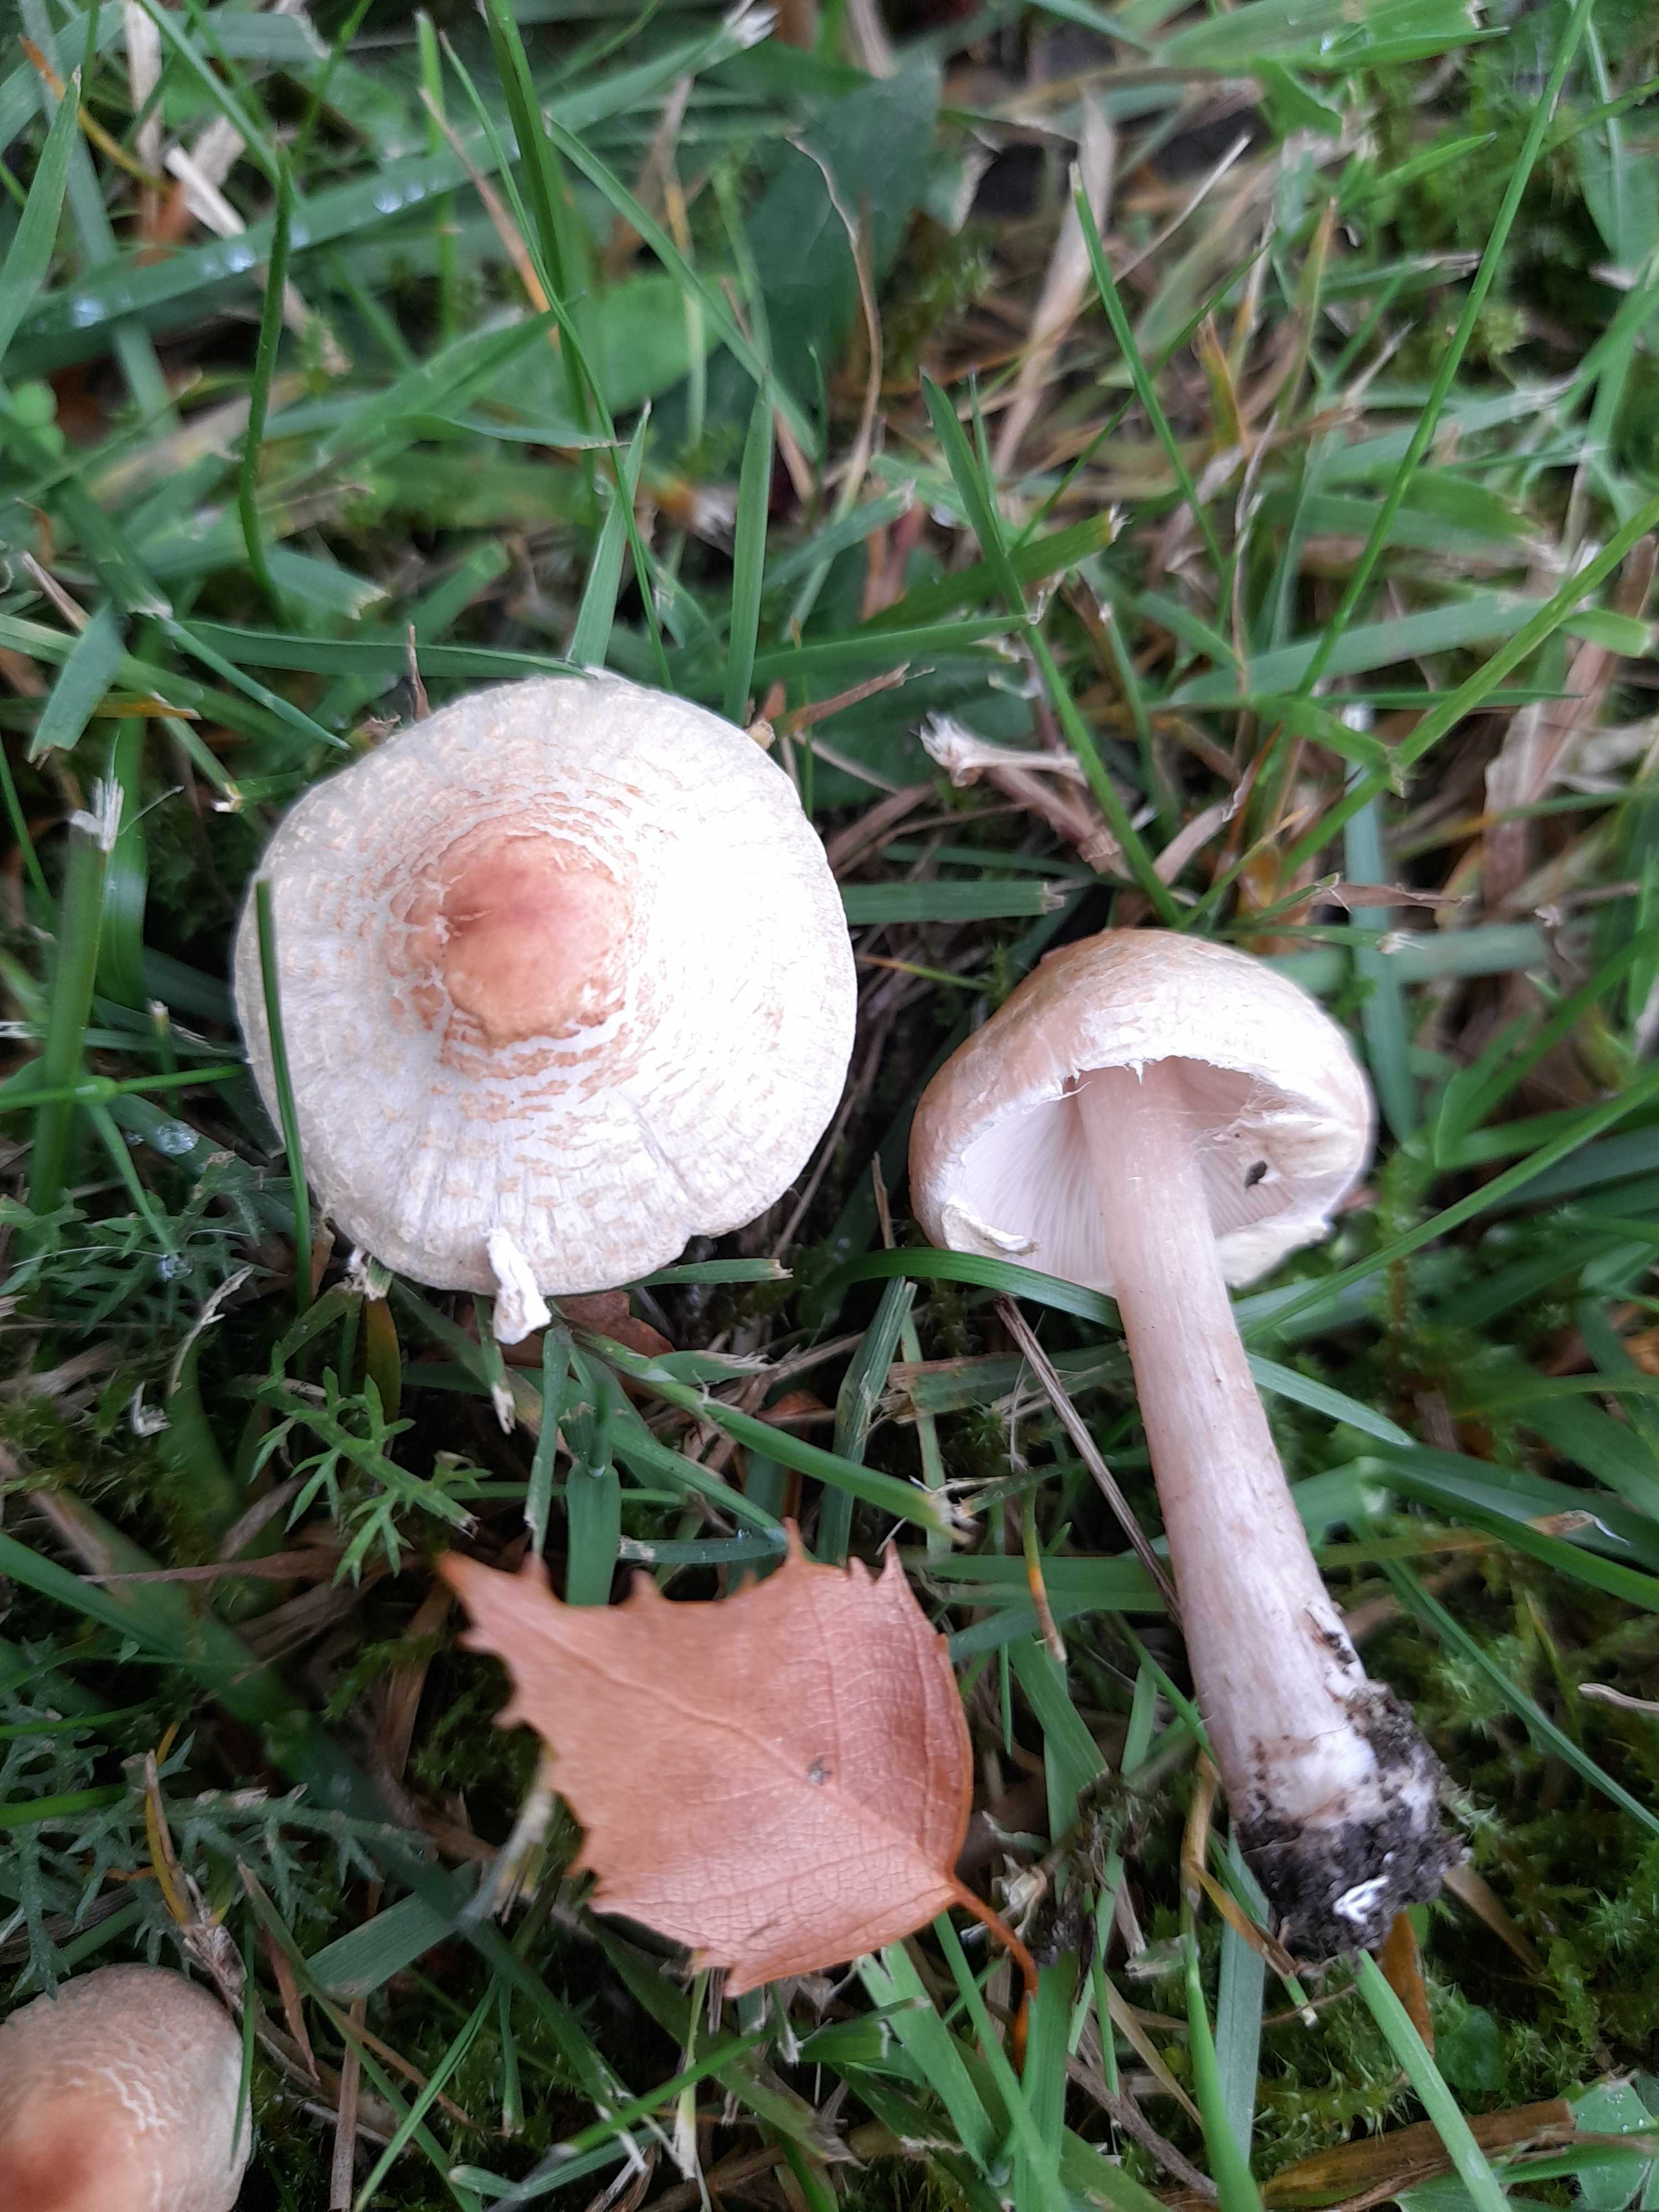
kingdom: Fungi
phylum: Basidiomycota
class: Agaricomycetes
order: Agaricales
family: Agaricaceae
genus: Lepiota
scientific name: Lepiota cristata
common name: stinkende parasolhat
